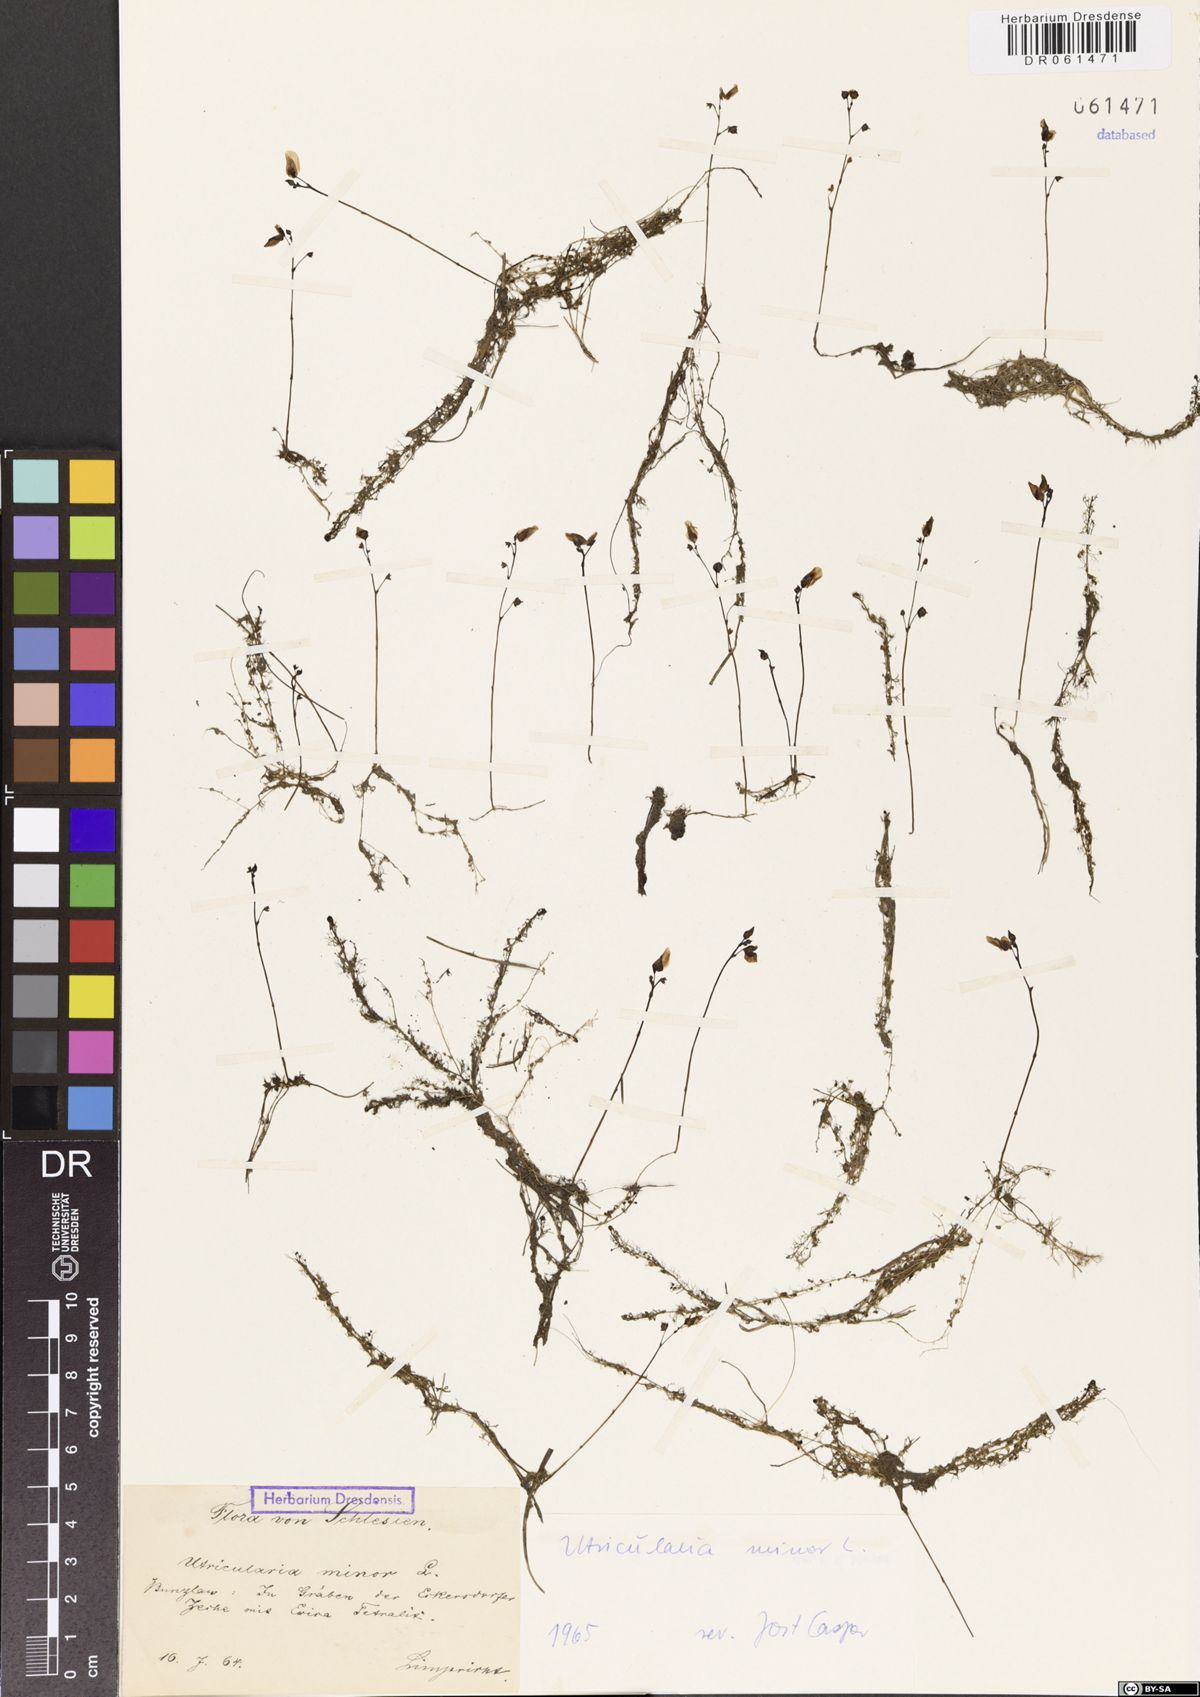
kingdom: Plantae
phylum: Tracheophyta
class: Magnoliopsida
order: Lamiales
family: Lentibulariaceae
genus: Utricularia
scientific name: Utricularia minor
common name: Lesser bladderwort
